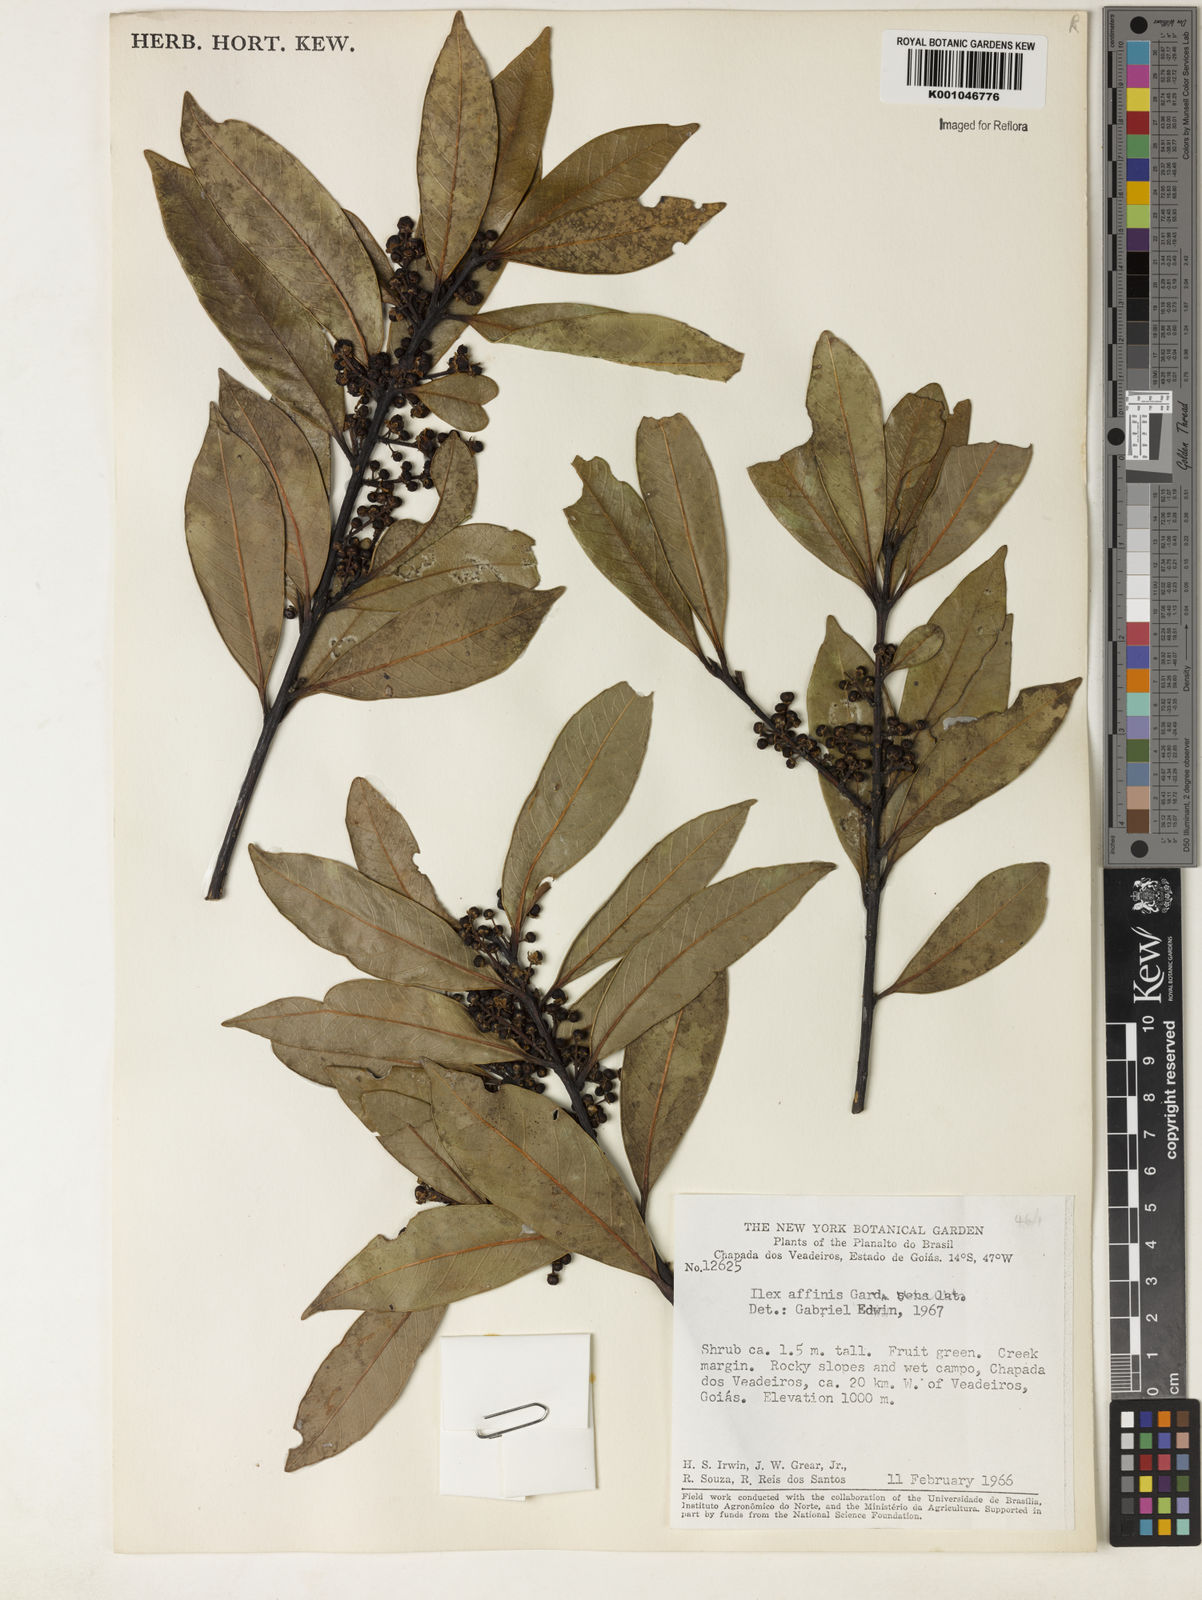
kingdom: Plantae
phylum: Tracheophyta
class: Magnoliopsida
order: Aquifoliales
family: Aquifoliaceae
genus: Ilex
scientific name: Ilex affinis
